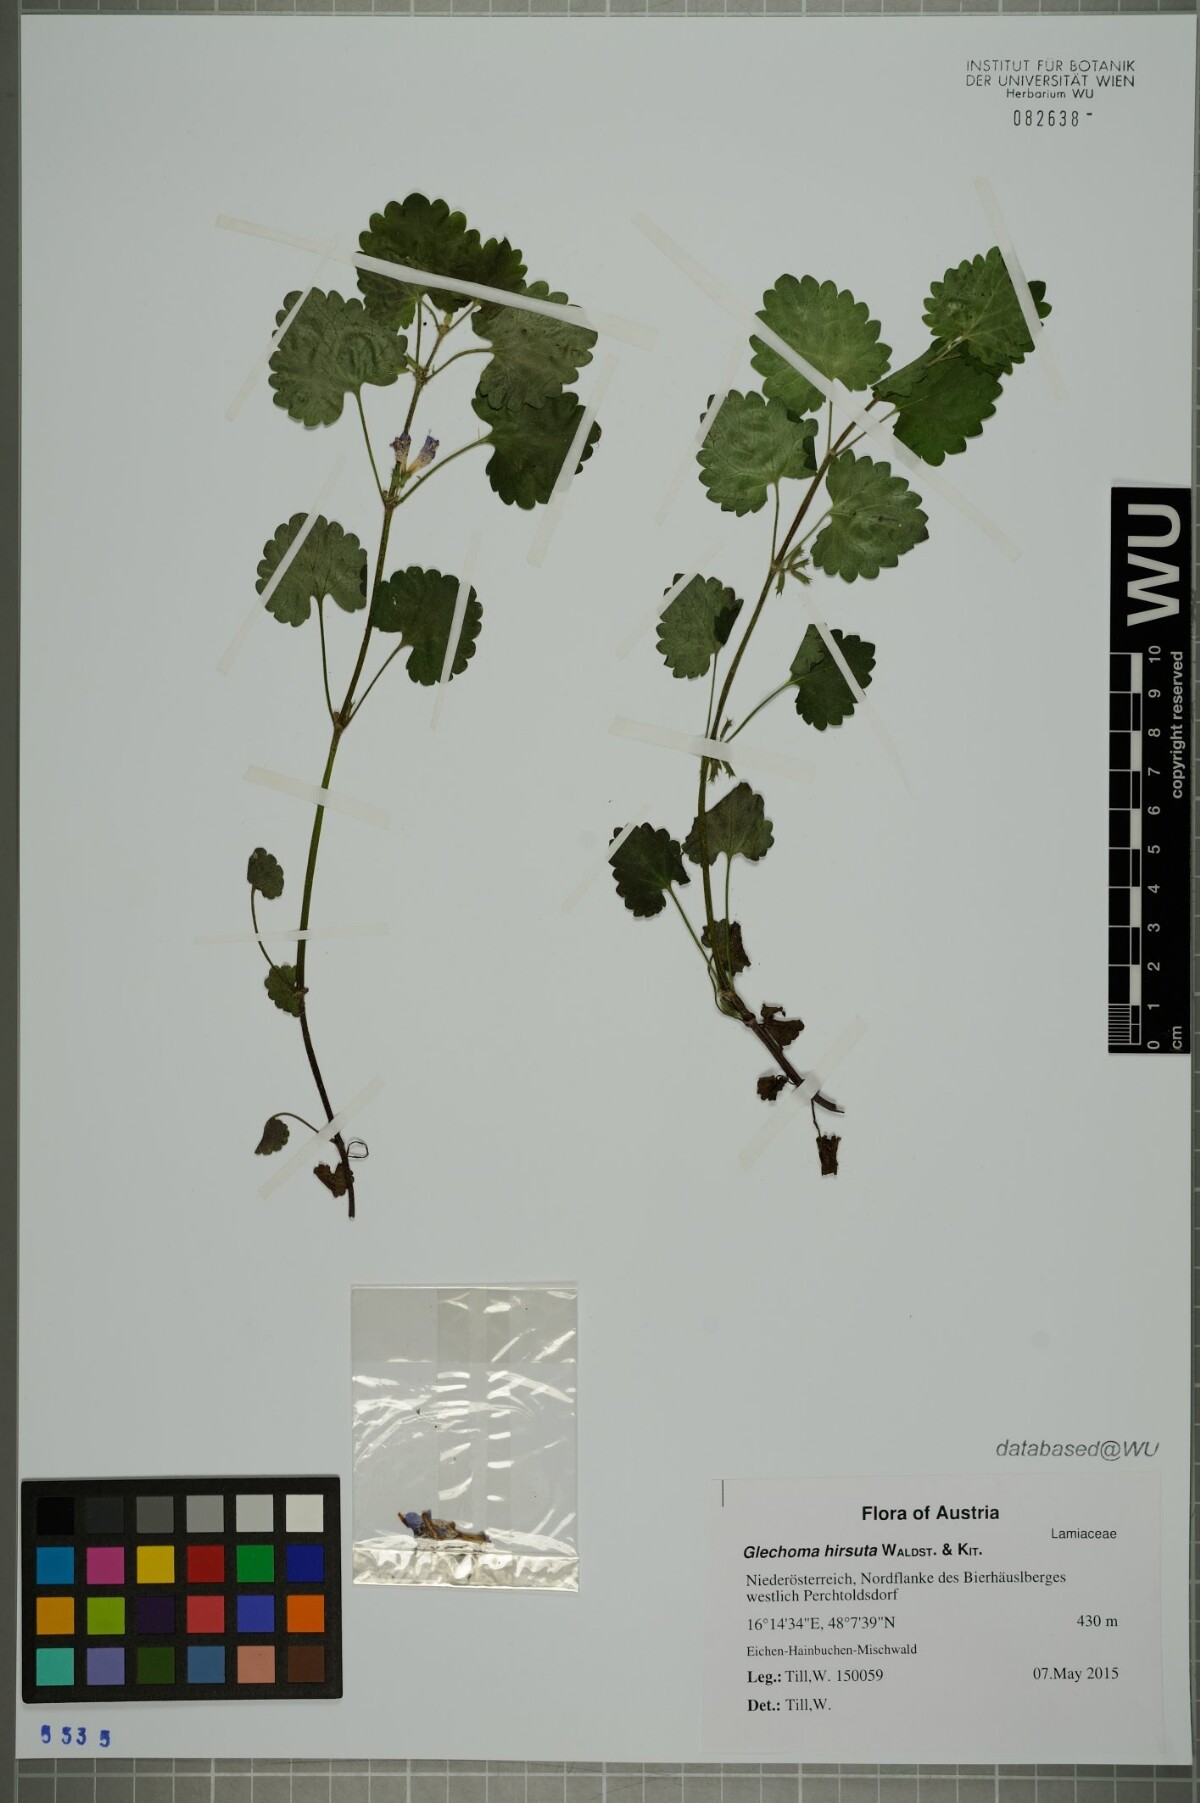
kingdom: Plantae
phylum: Tracheophyta
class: Magnoliopsida
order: Lamiales
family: Lamiaceae
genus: Glechoma
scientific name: Glechoma hirsuta
